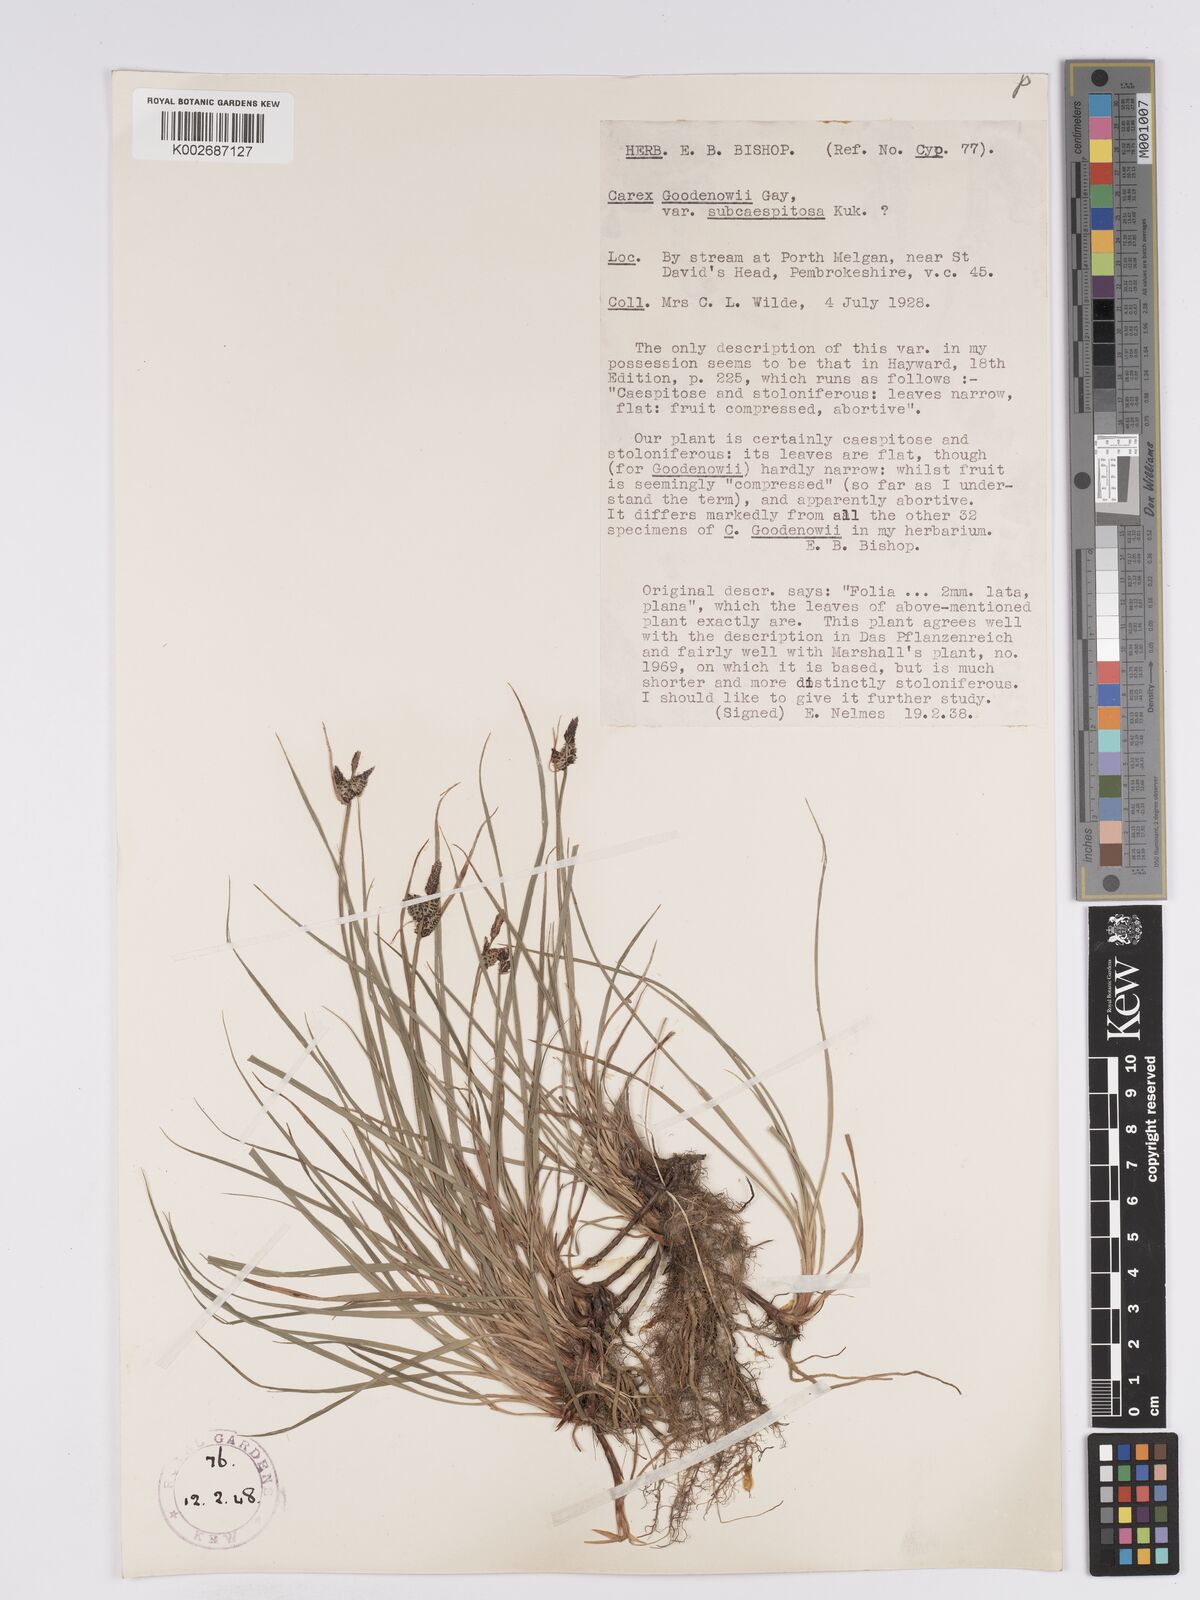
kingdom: Plantae
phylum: Tracheophyta
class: Liliopsida
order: Poales
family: Cyperaceae
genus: Carex
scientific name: Carex nigra
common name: Common sedge
